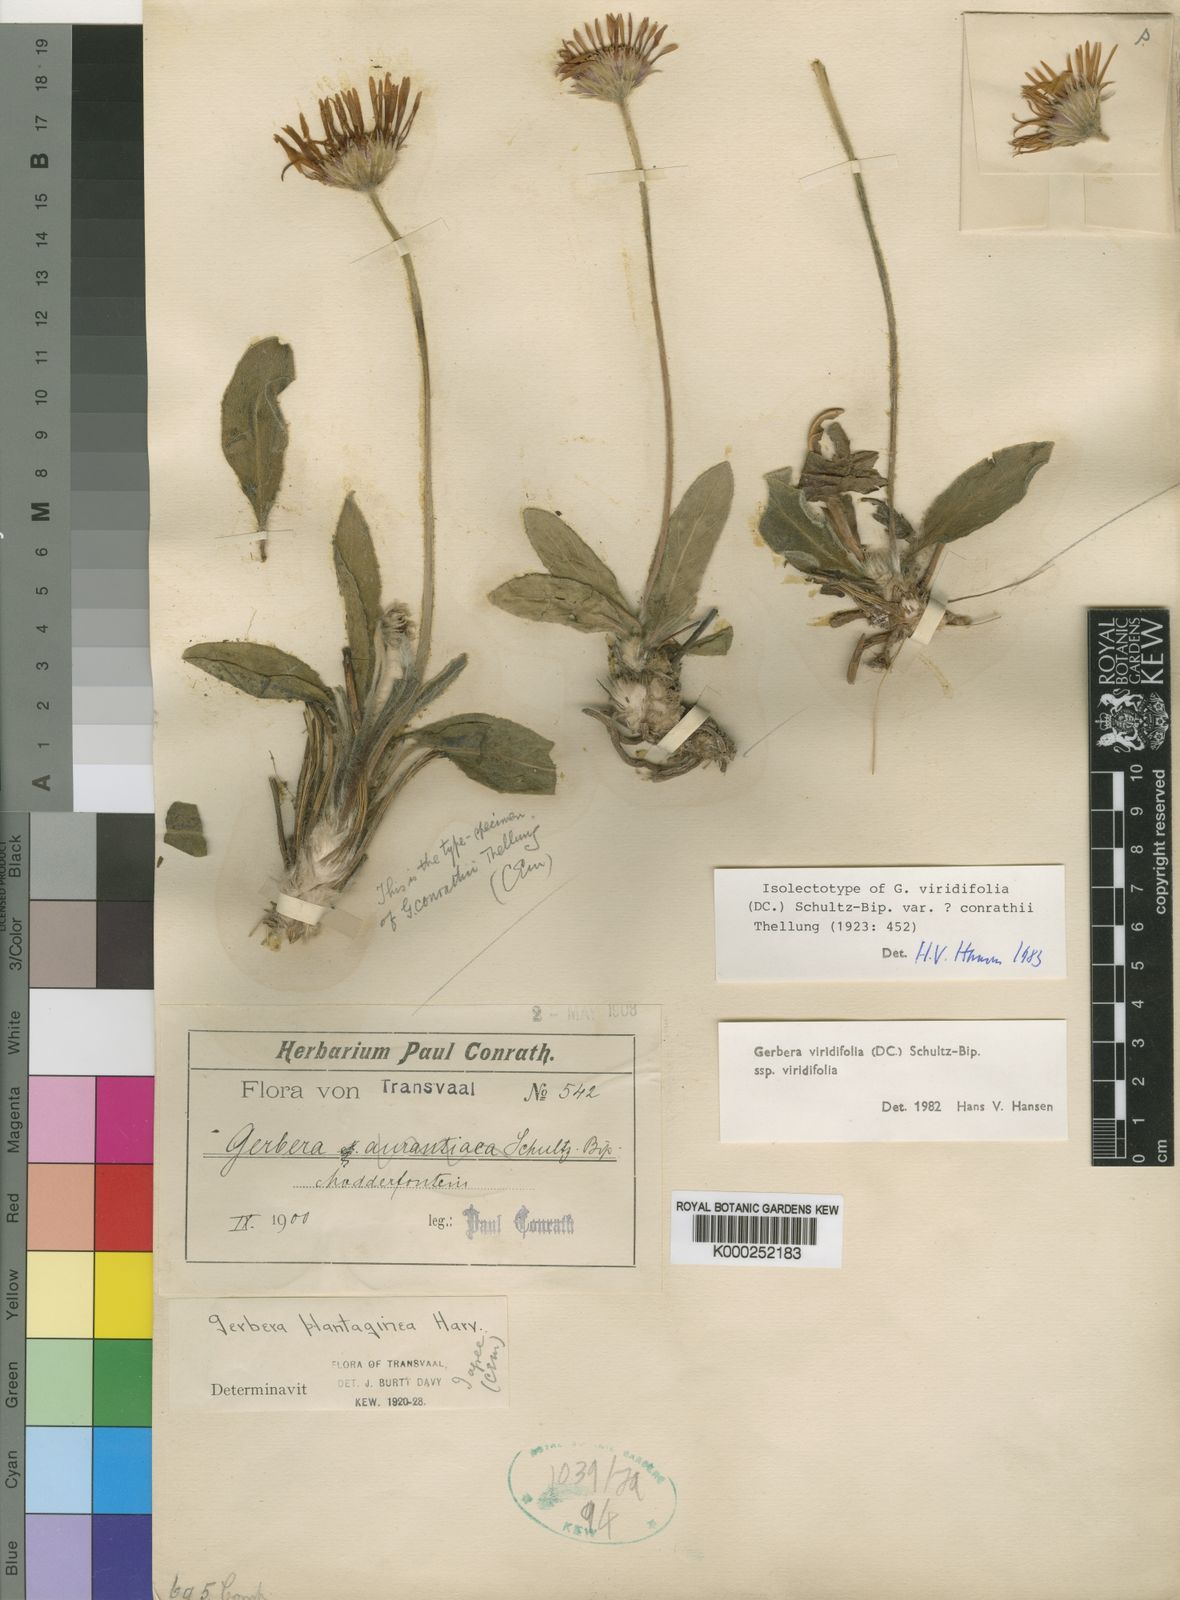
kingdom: Plantae
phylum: Tracheophyta
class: Magnoliopsida
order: Asterales
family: Asteraceae
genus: Gerbera
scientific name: Gerbera viridifolia
